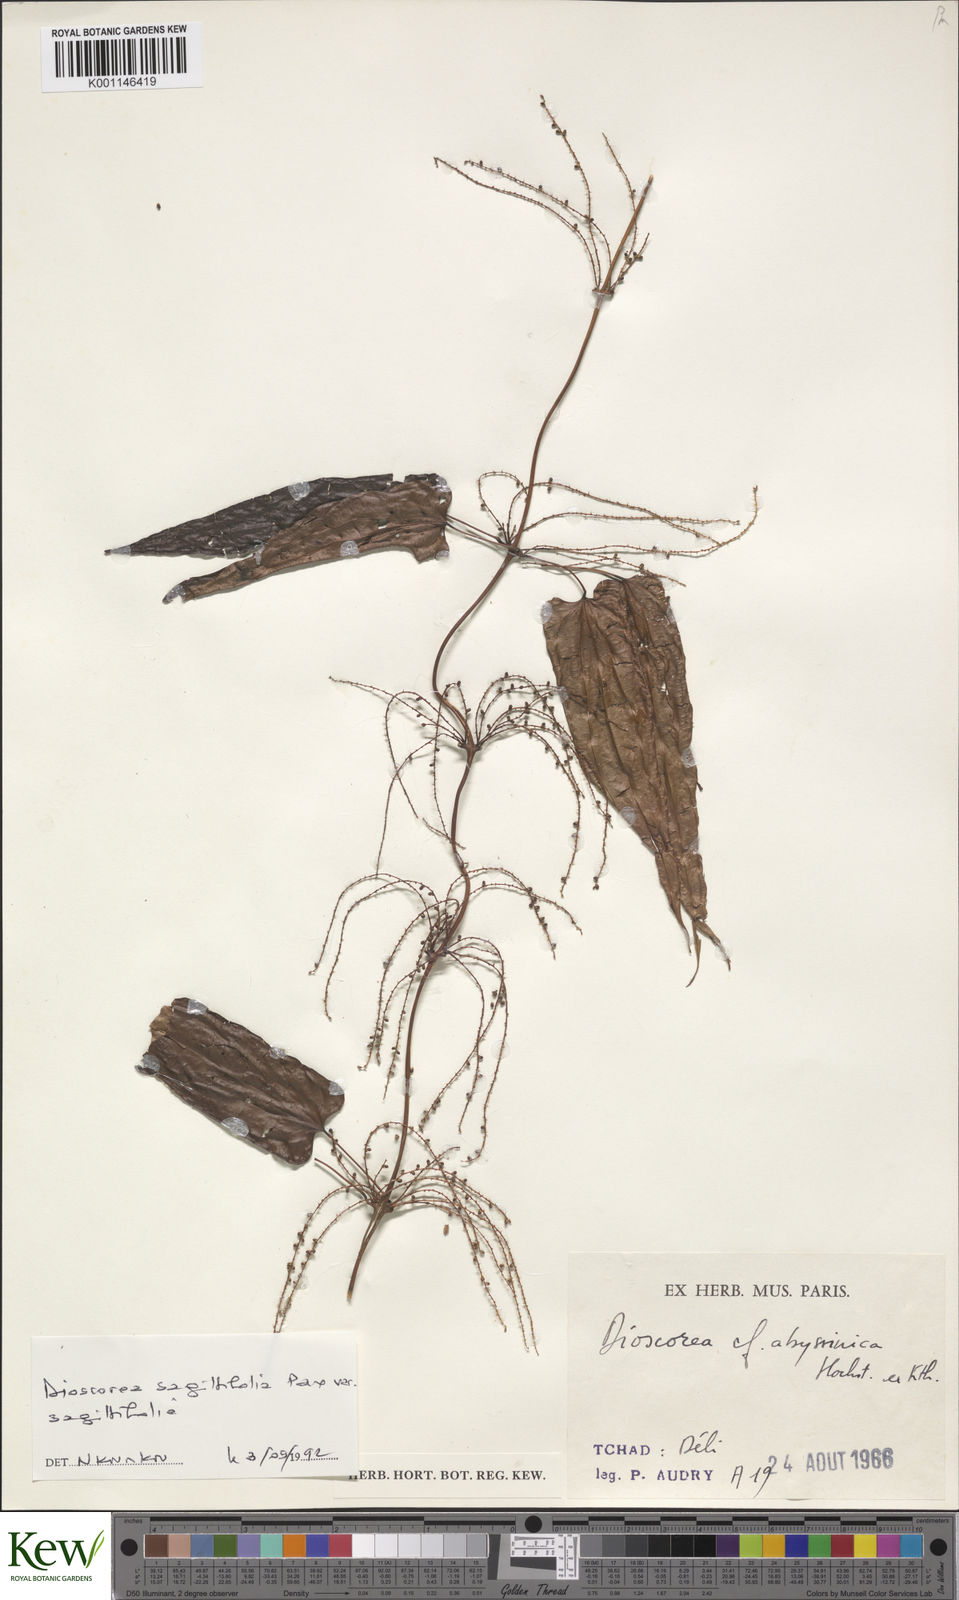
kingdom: Plantae
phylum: Tracheophyta
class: Liliopsida
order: Dioscoreales
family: Dioscoreaceae
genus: Dioscorea
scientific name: Dioscorea abyssinica
